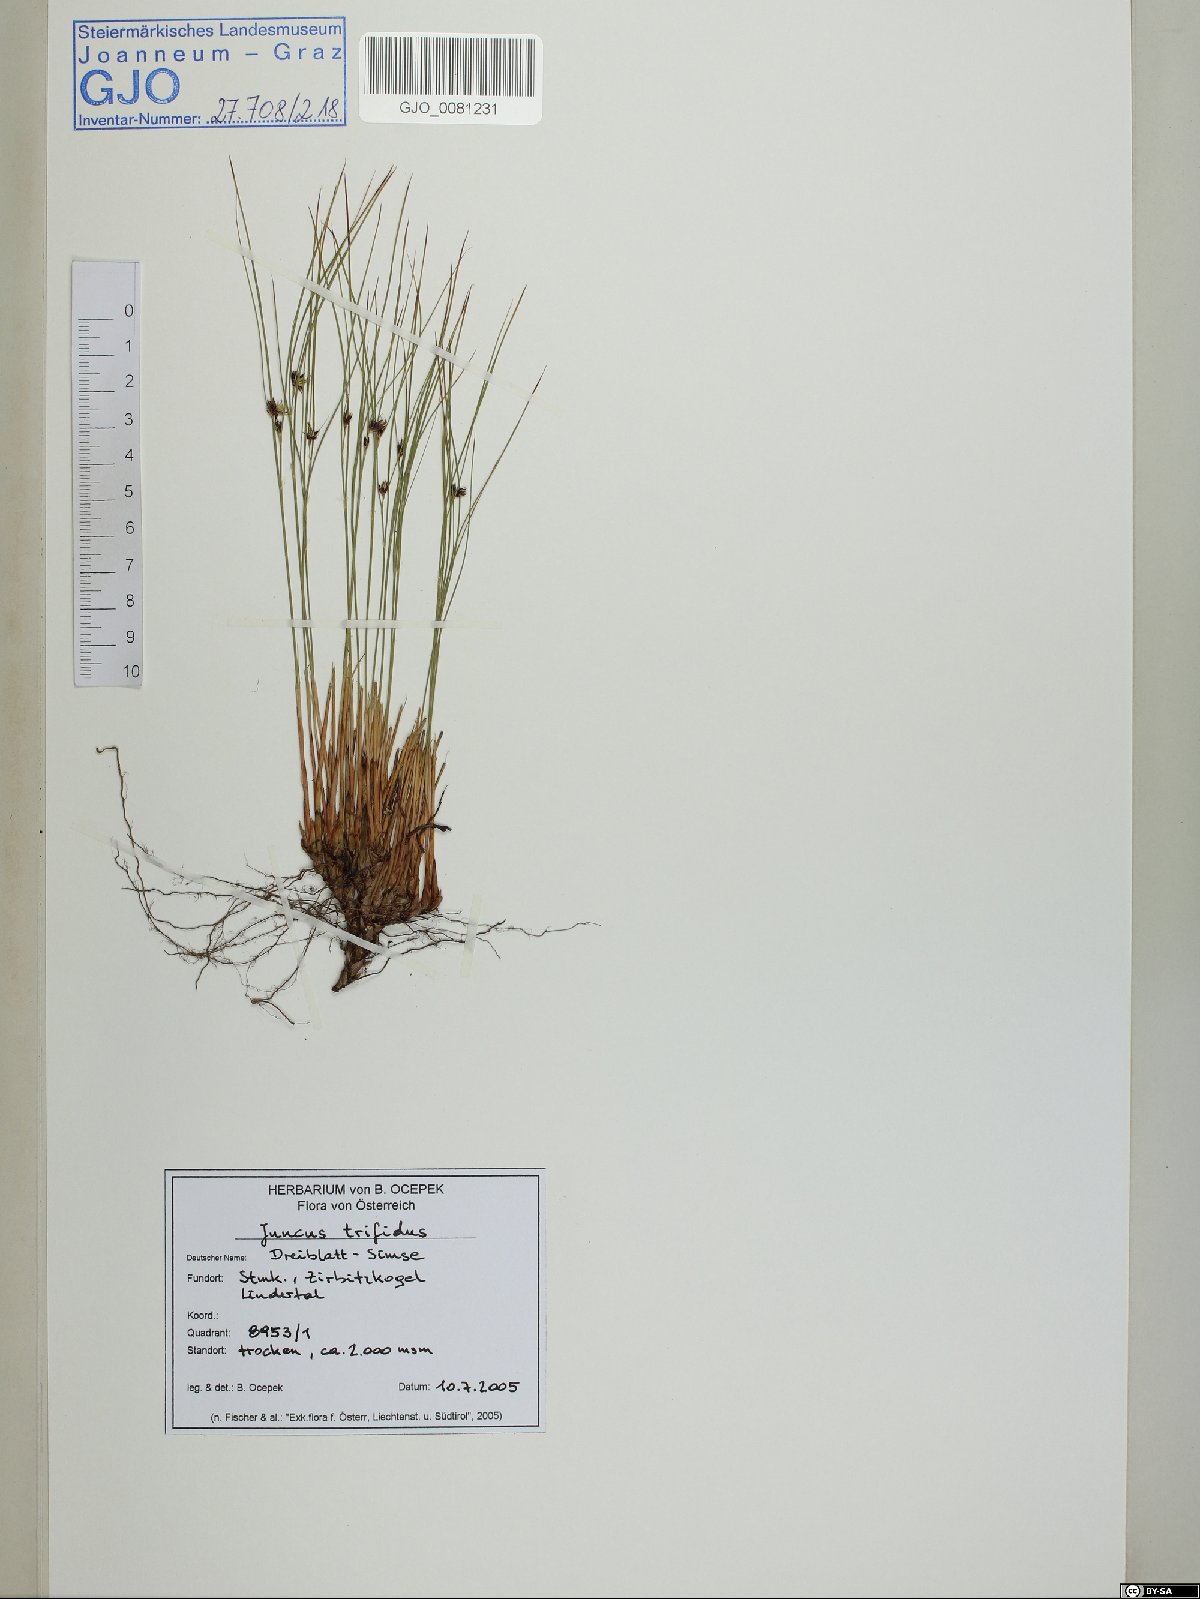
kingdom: Plantae
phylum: Tracheophyta
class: Liliopsida
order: Poales
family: Juncaceae
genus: Oreojuncus
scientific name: Oreojuncus trifidus
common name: Highland rush
